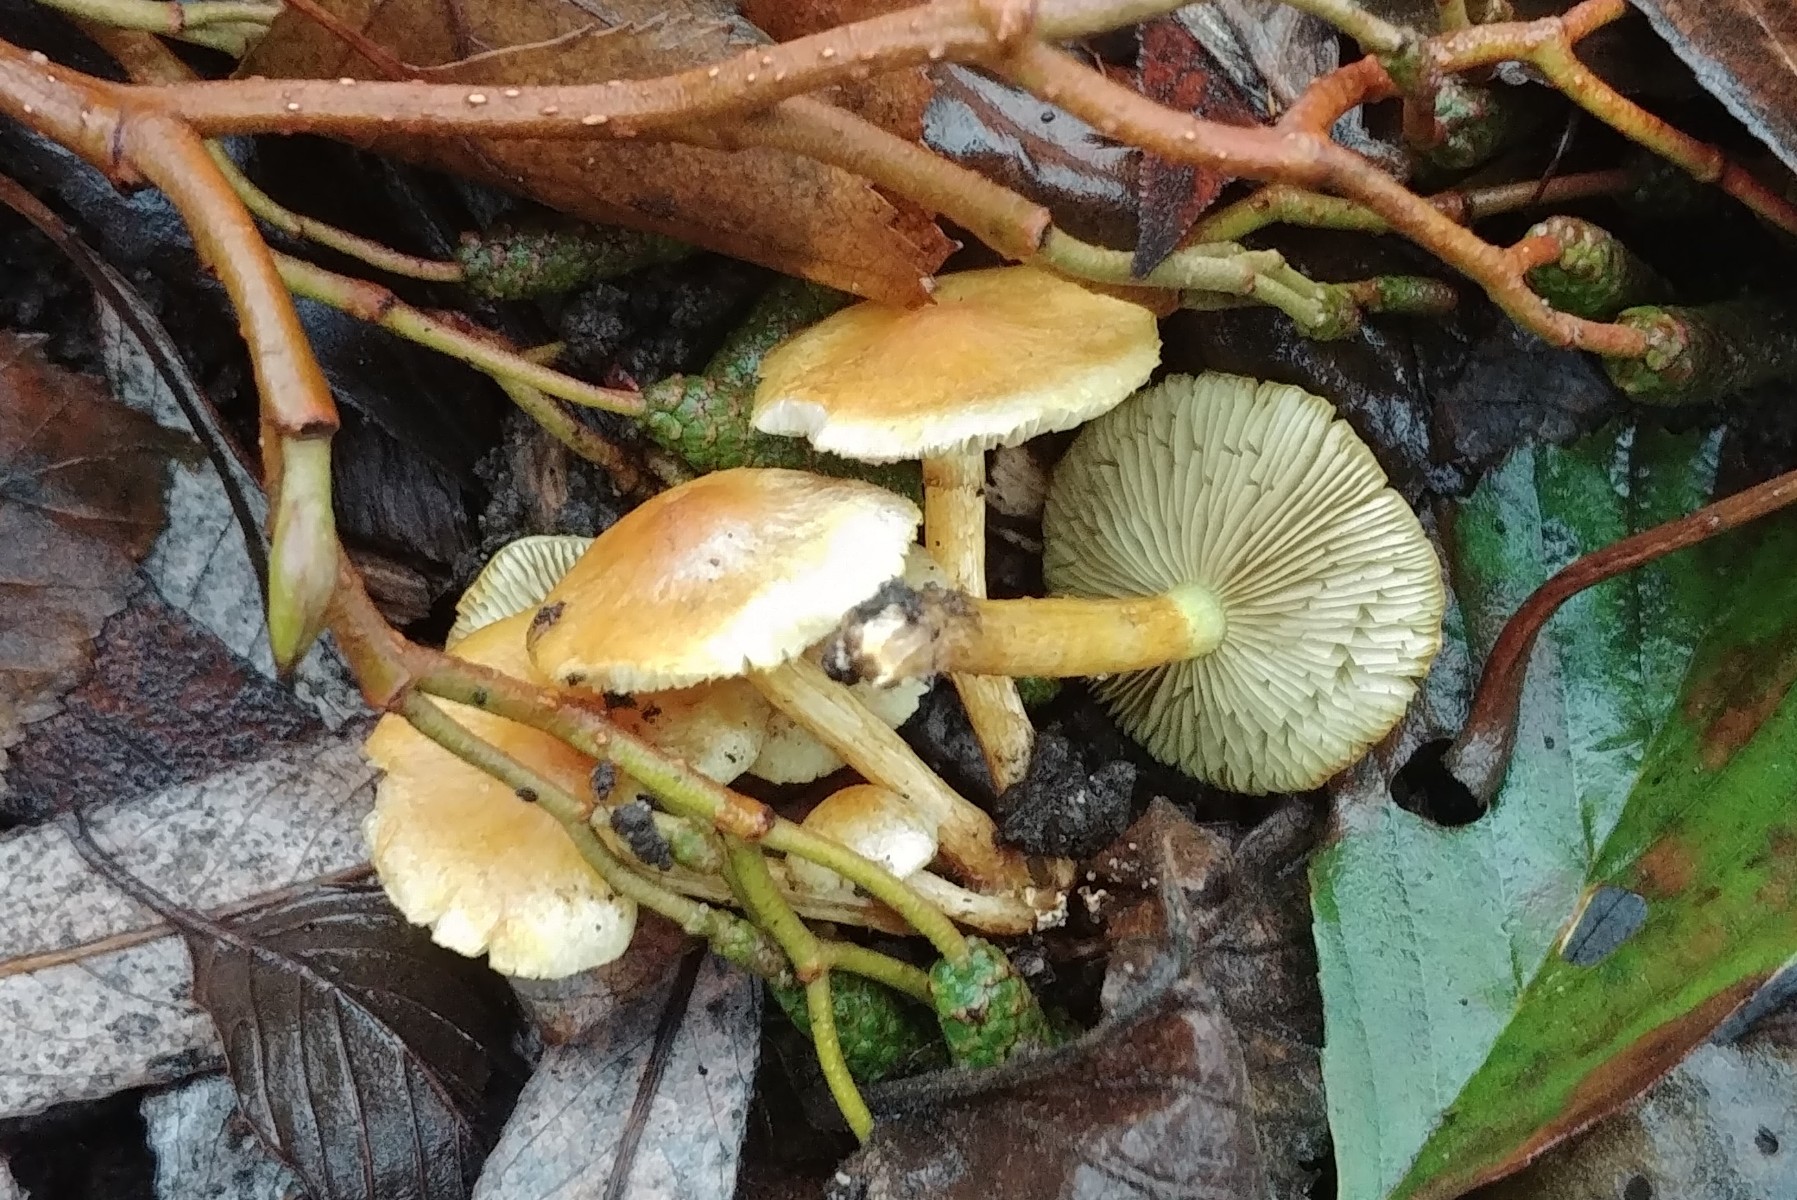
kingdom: Fungi
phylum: Basidiomycota
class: Agaricomycetes
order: Agaricales
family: Strophariaceae
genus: Hypholoma
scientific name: Hypholoma fasciculare
